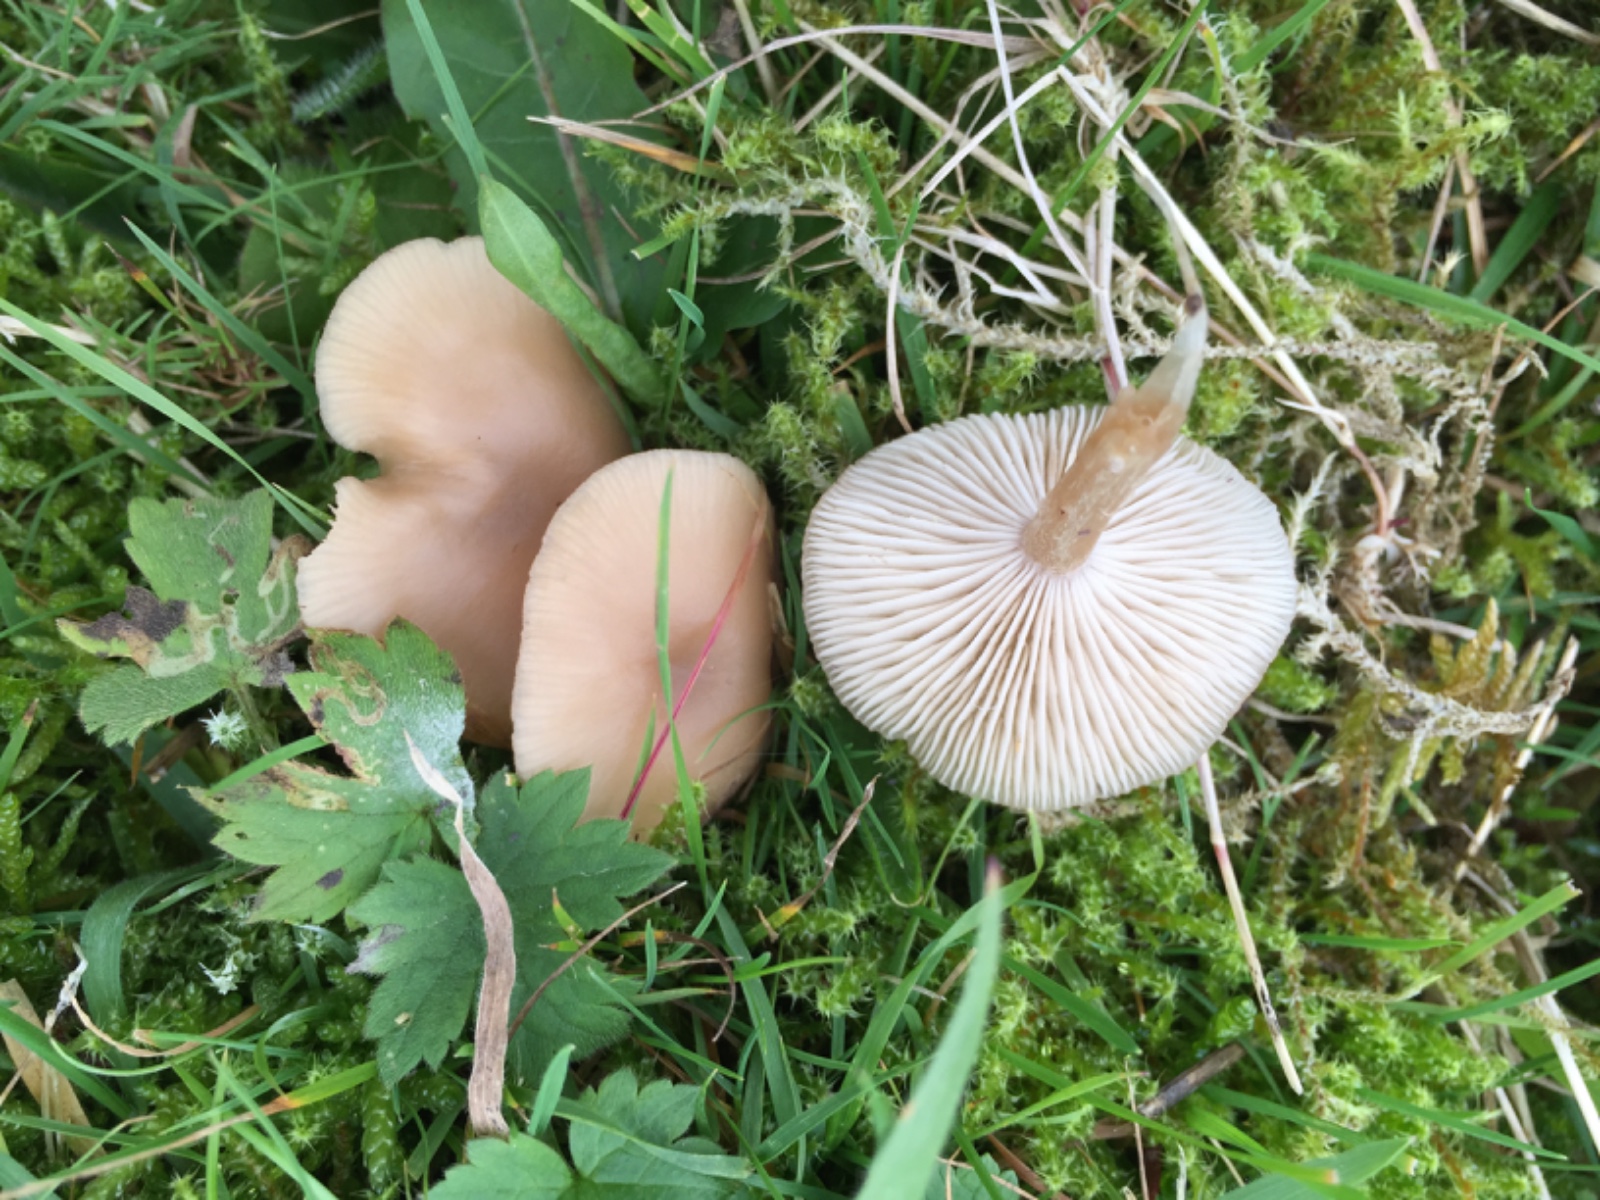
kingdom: Fungi
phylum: Basidiomycota
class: Agaricomycetes
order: Agaricales
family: Tricholomataceae
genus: Clitocybe
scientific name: Clitocybe fragrans
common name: vellugtende tragthat
